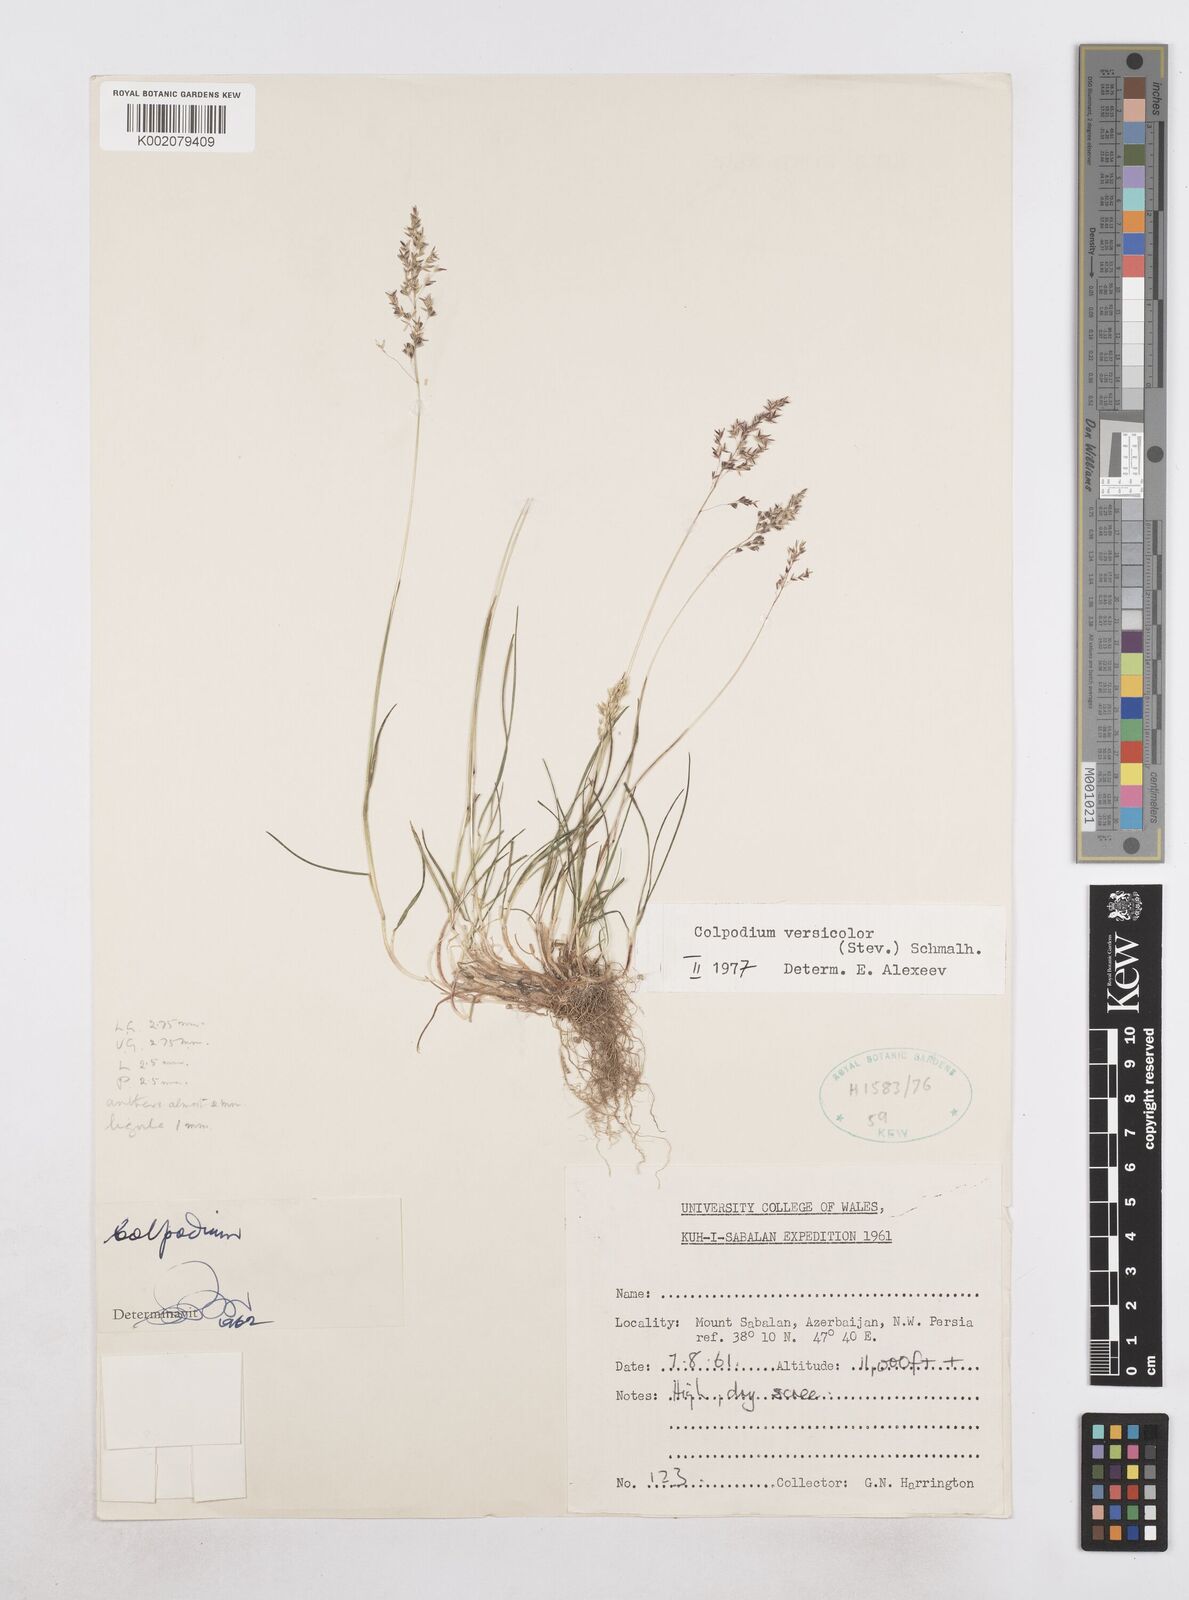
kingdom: Plantae
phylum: Tracheophyta
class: Liliopsida
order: Poales
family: Poaceae
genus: Colpodium
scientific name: Colpodium versicolor
